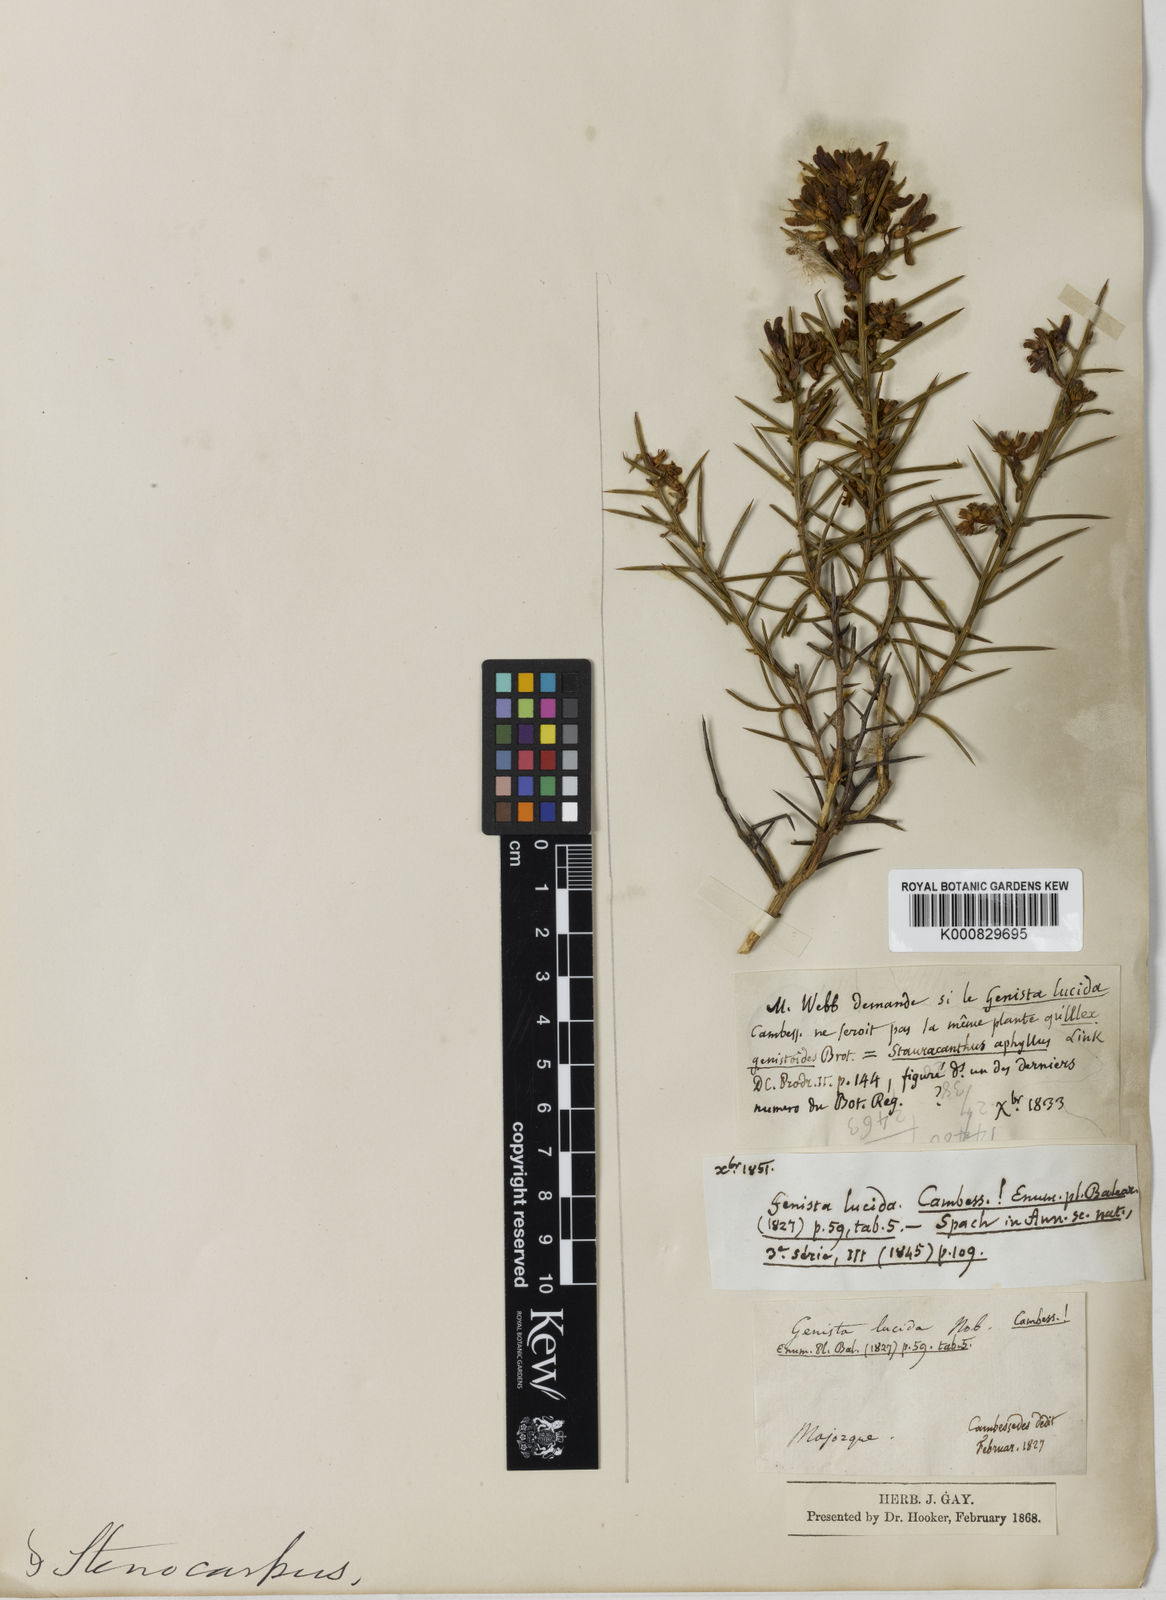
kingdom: Plantae
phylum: Tracheophyta
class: Magnoliopsida
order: Fabales
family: Fabaceae
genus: Genista
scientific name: Genista
